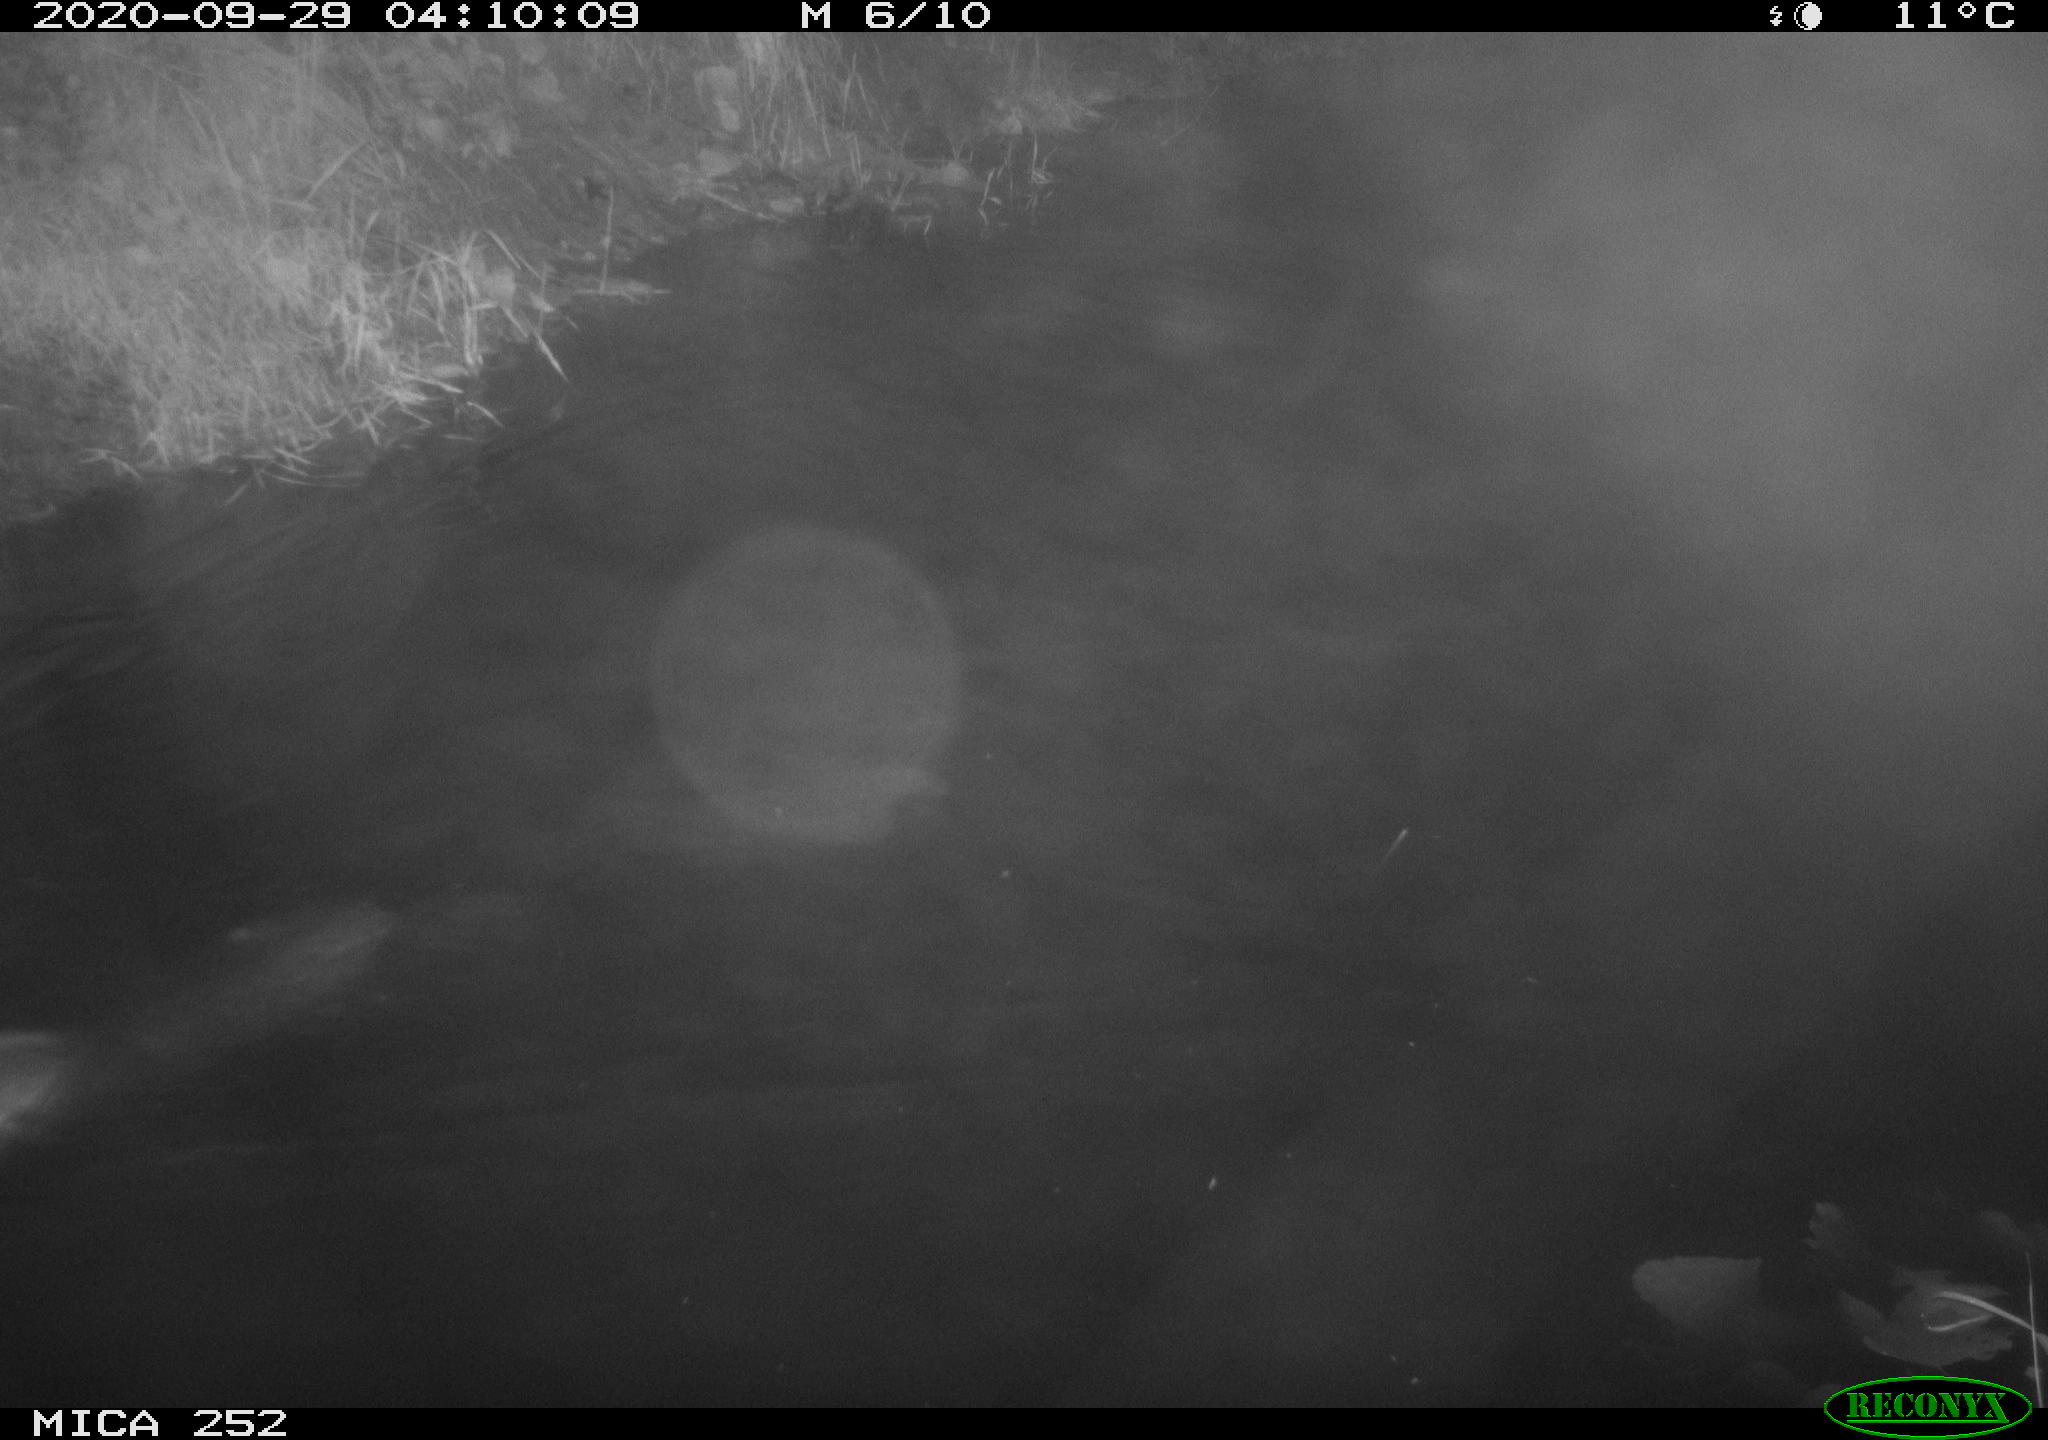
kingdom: Animalia
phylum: Chordata
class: Mammalia
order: Rodentia
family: Castoridae
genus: Castor
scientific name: Castor fiber
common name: Eurasian beaver
